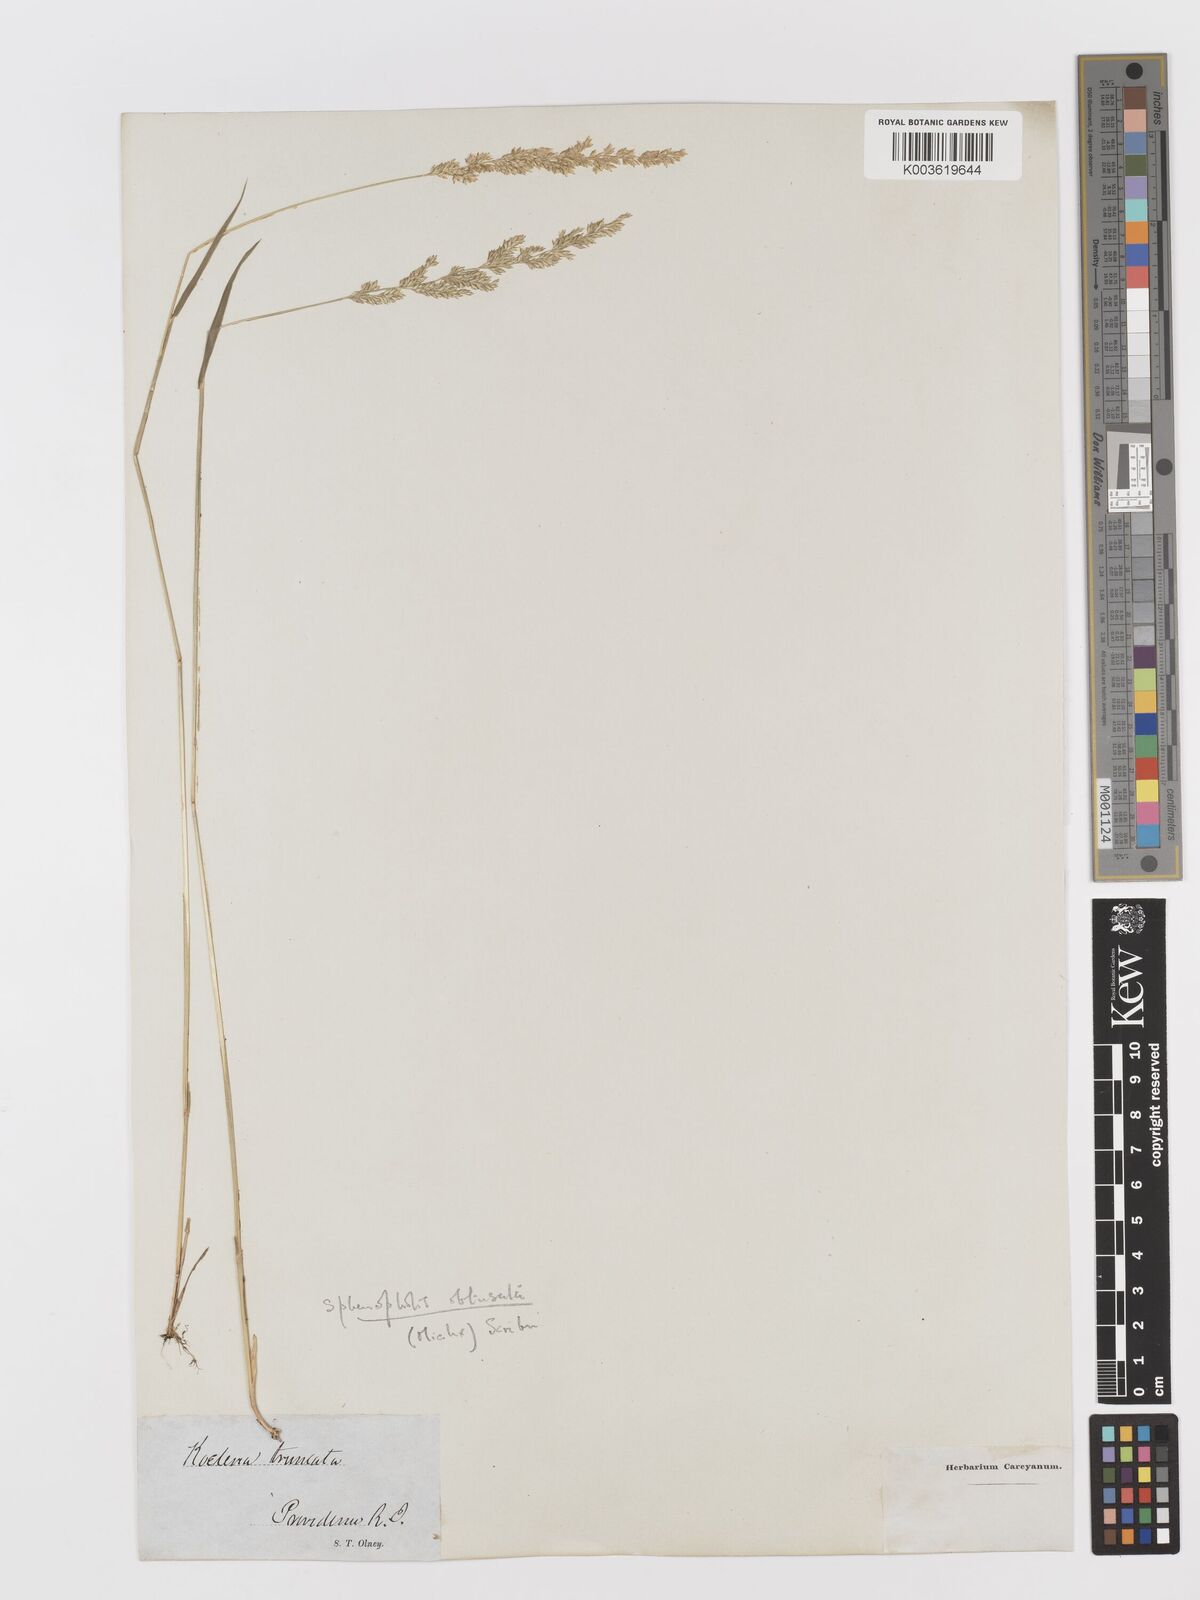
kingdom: Plantae
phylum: Tracheophyta
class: Liliopsida
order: Poales
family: Poaceae
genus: Sphenopholis
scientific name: Sphenopholis obtusata
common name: Prairie grass
